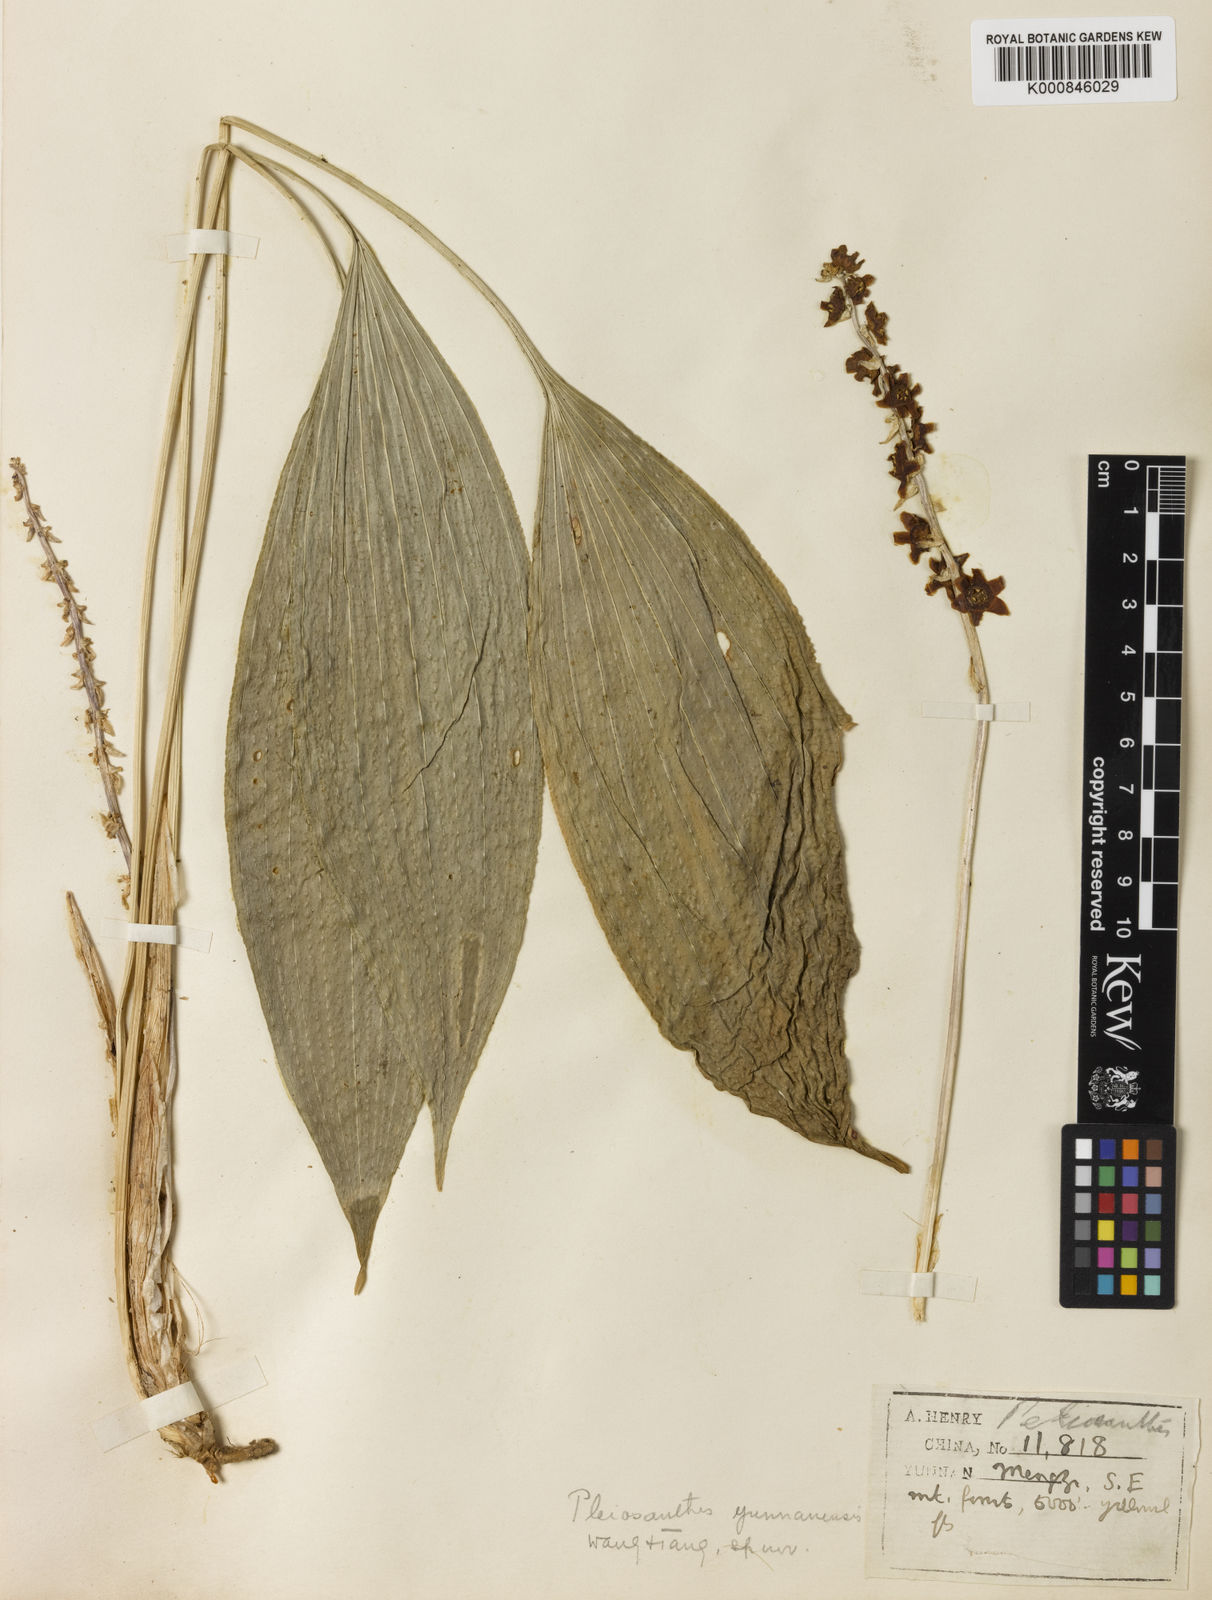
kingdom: Plantae
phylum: Tracheophyta
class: Liliopsida
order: Asparagales
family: Asparagaceae
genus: Peliosanthes
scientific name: Peliosanthes teta
